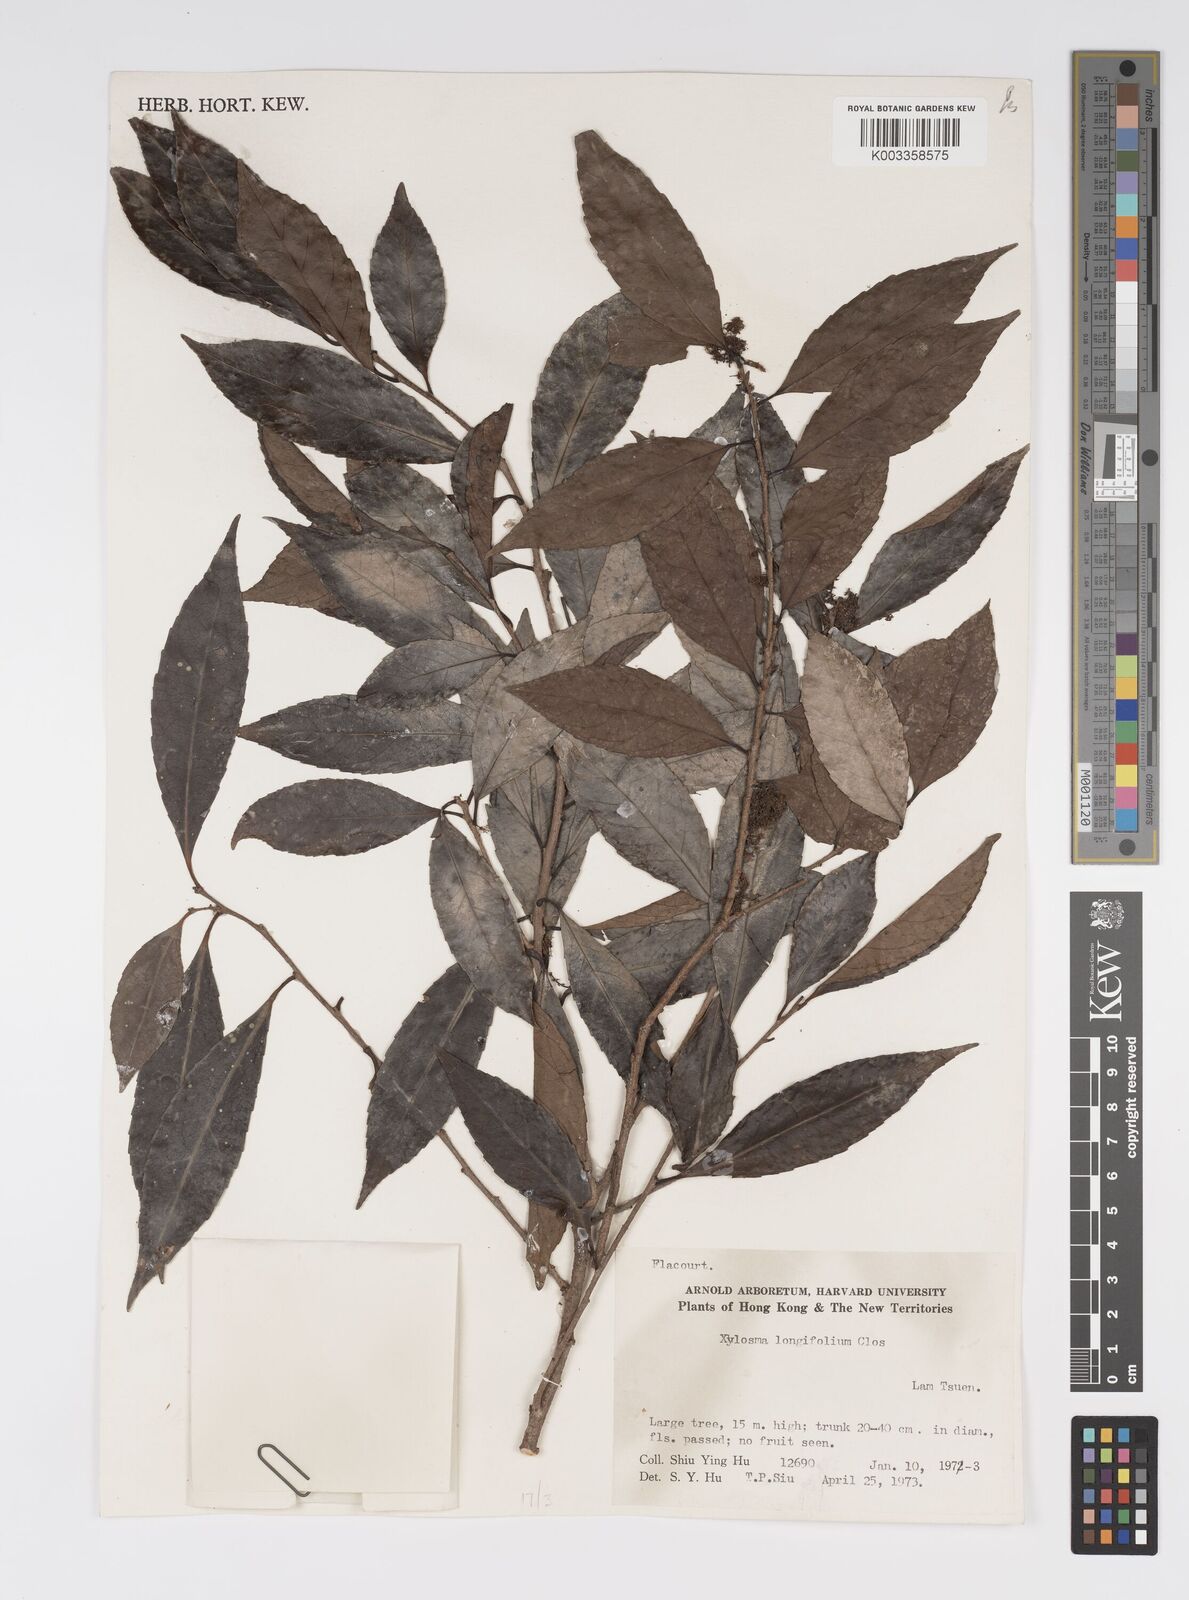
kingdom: Plantae
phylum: Tracheophyta
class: Magnoliopsida
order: Malpighiales
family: Salicaceae
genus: Xylosma
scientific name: Xylosma longifolia
